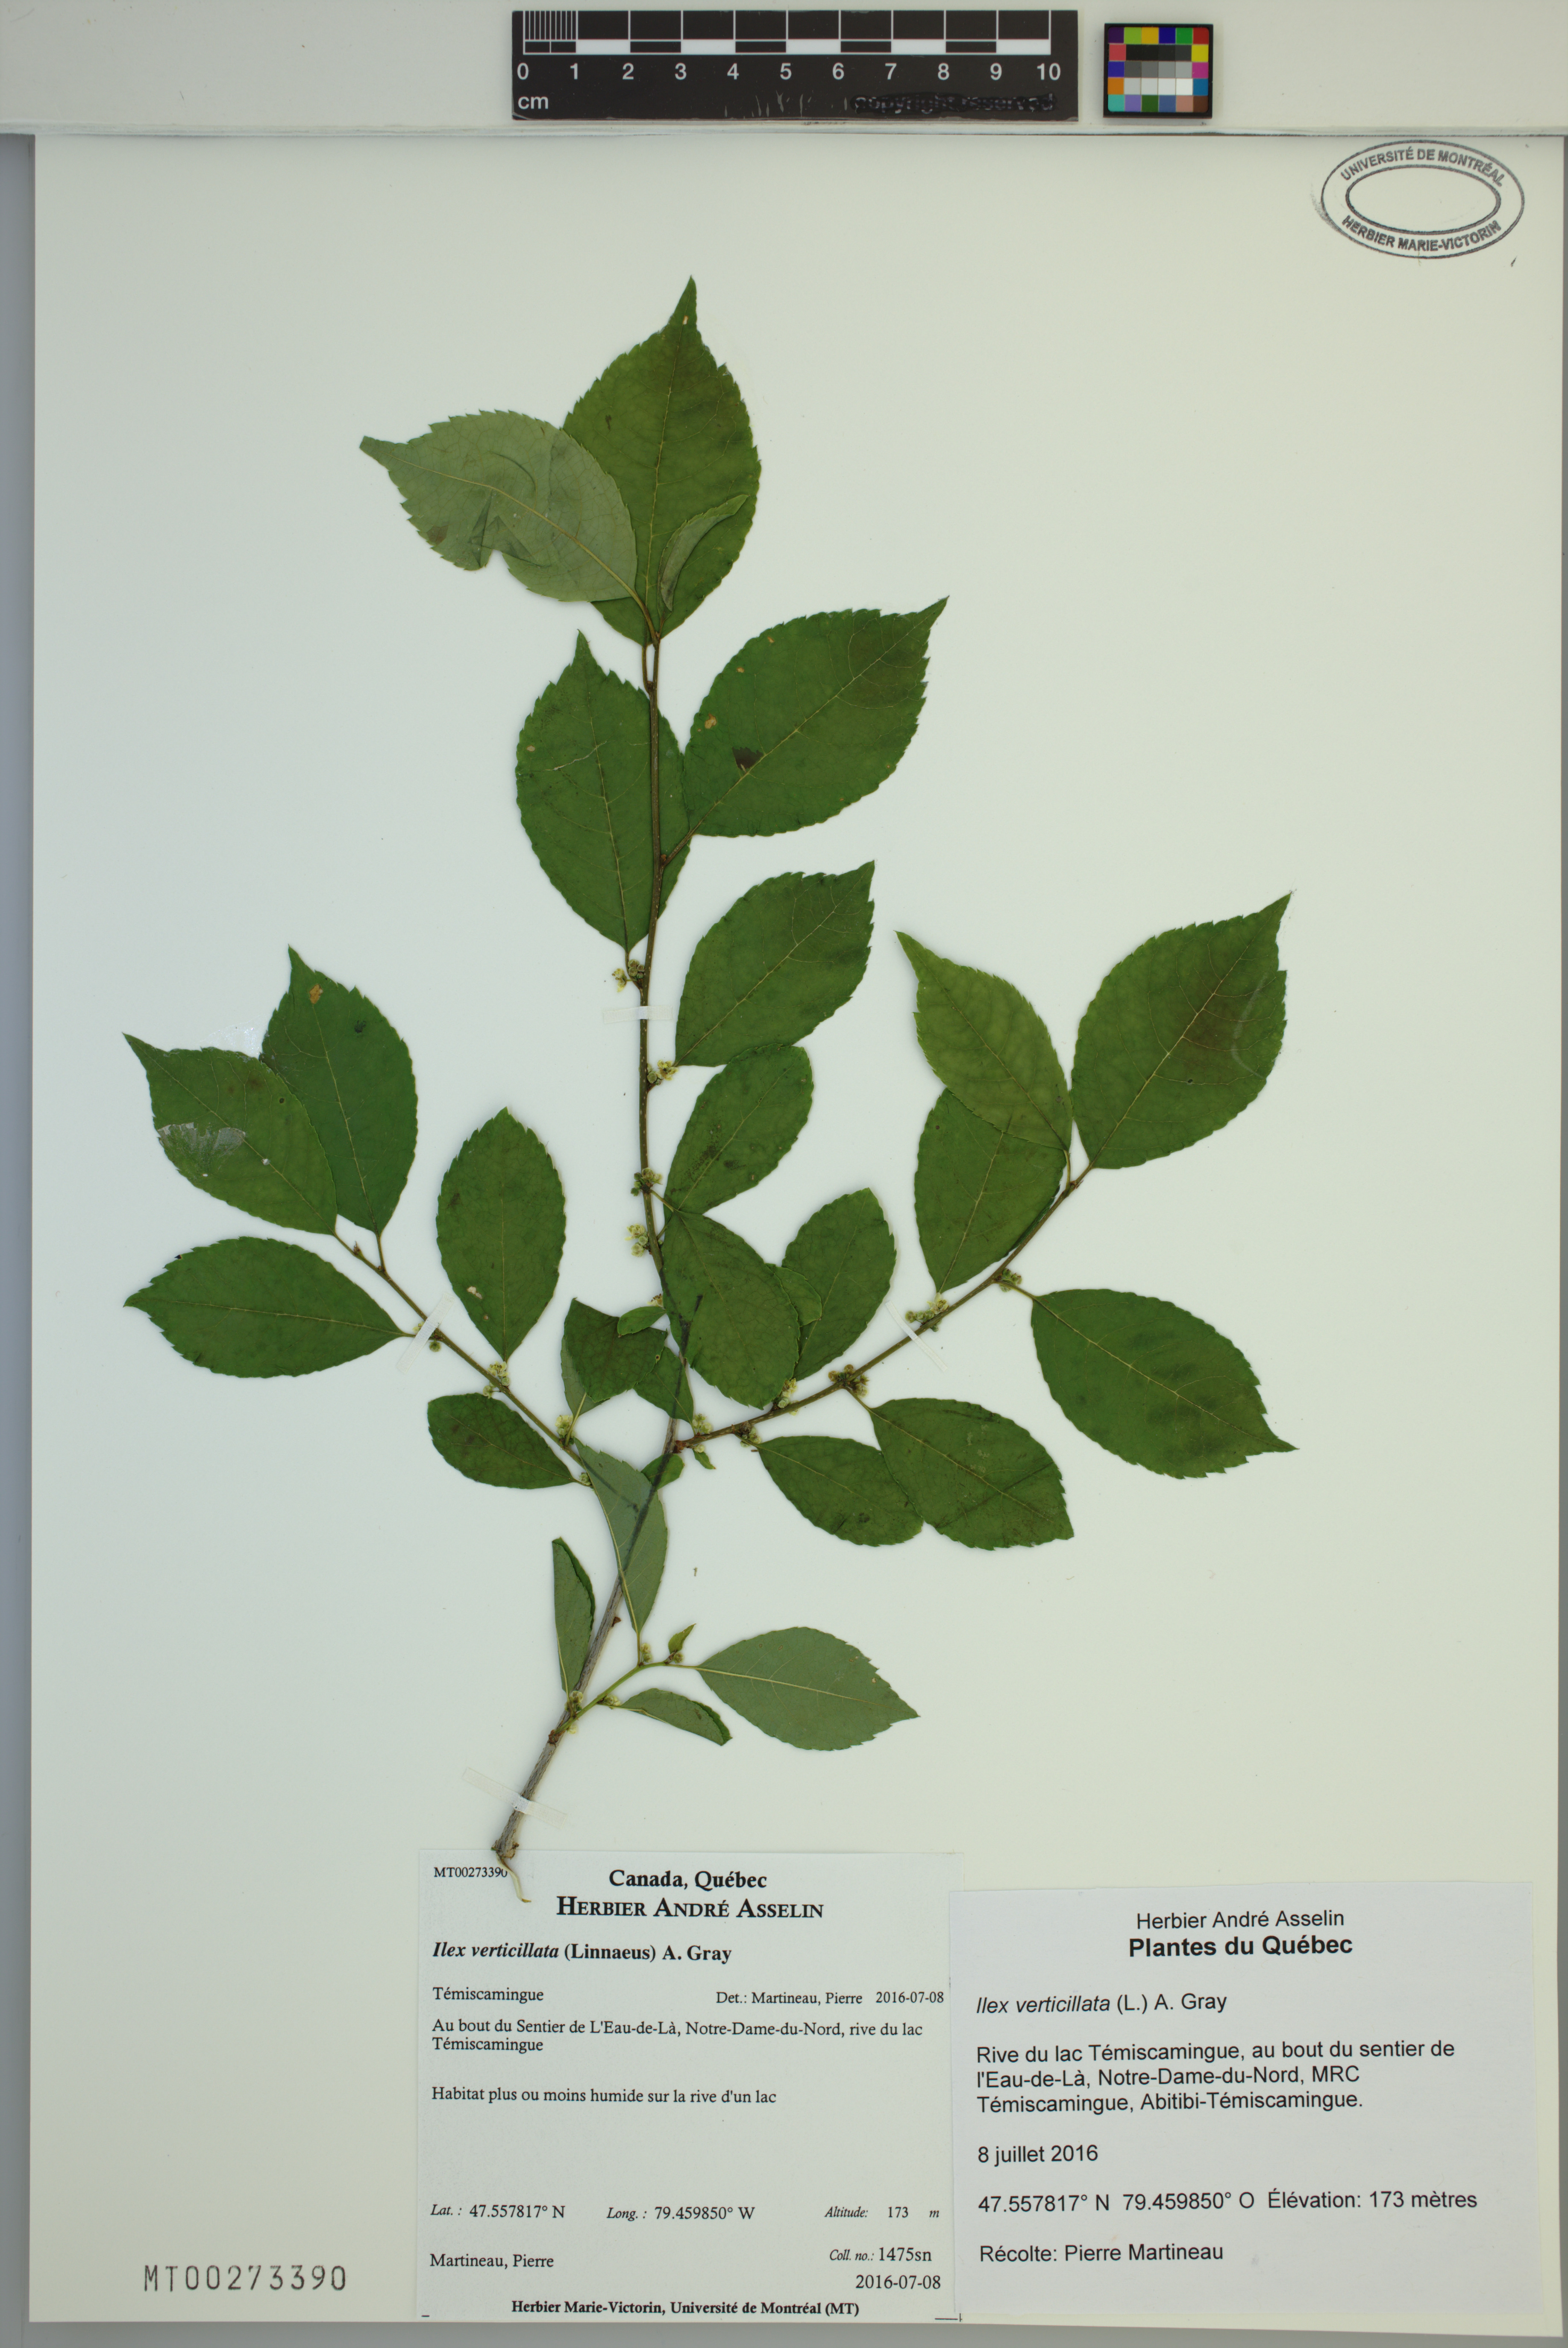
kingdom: Plantae
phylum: Tracheophyta
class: Magnoliopsida
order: Aquifoliales
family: Aquifoliaceae
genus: Ilex
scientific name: Ilex verticillata
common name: Virginia winterberry
